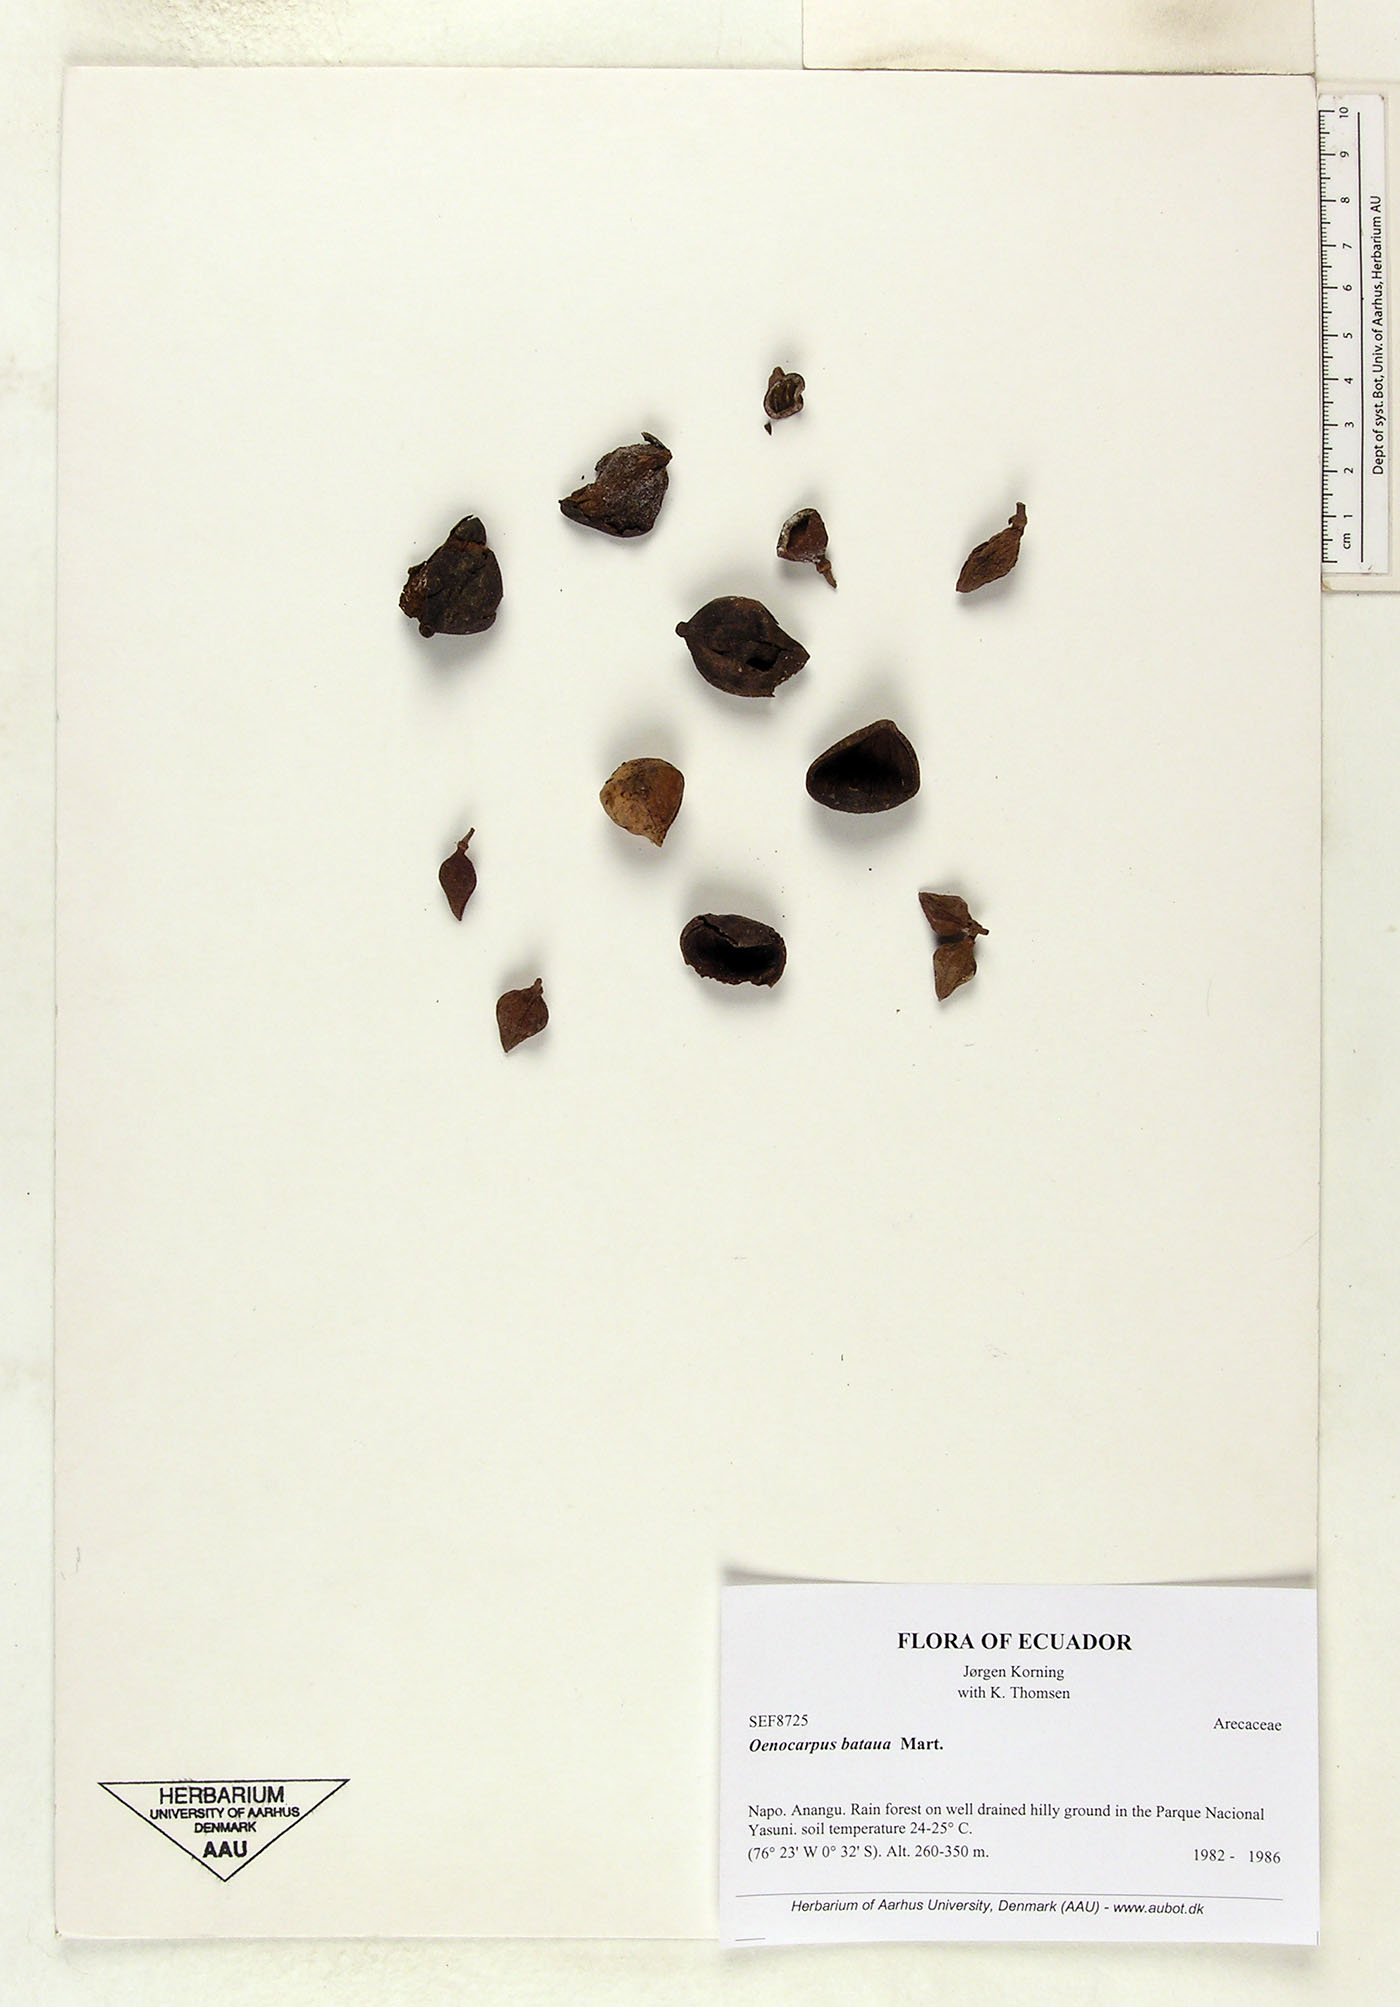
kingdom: Plantae
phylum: Tracheophyta
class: Liliopsida
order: Arecales
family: Arecaceae
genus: Oenocarpus
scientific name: Oenocarpus bataua
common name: Bataua palm
